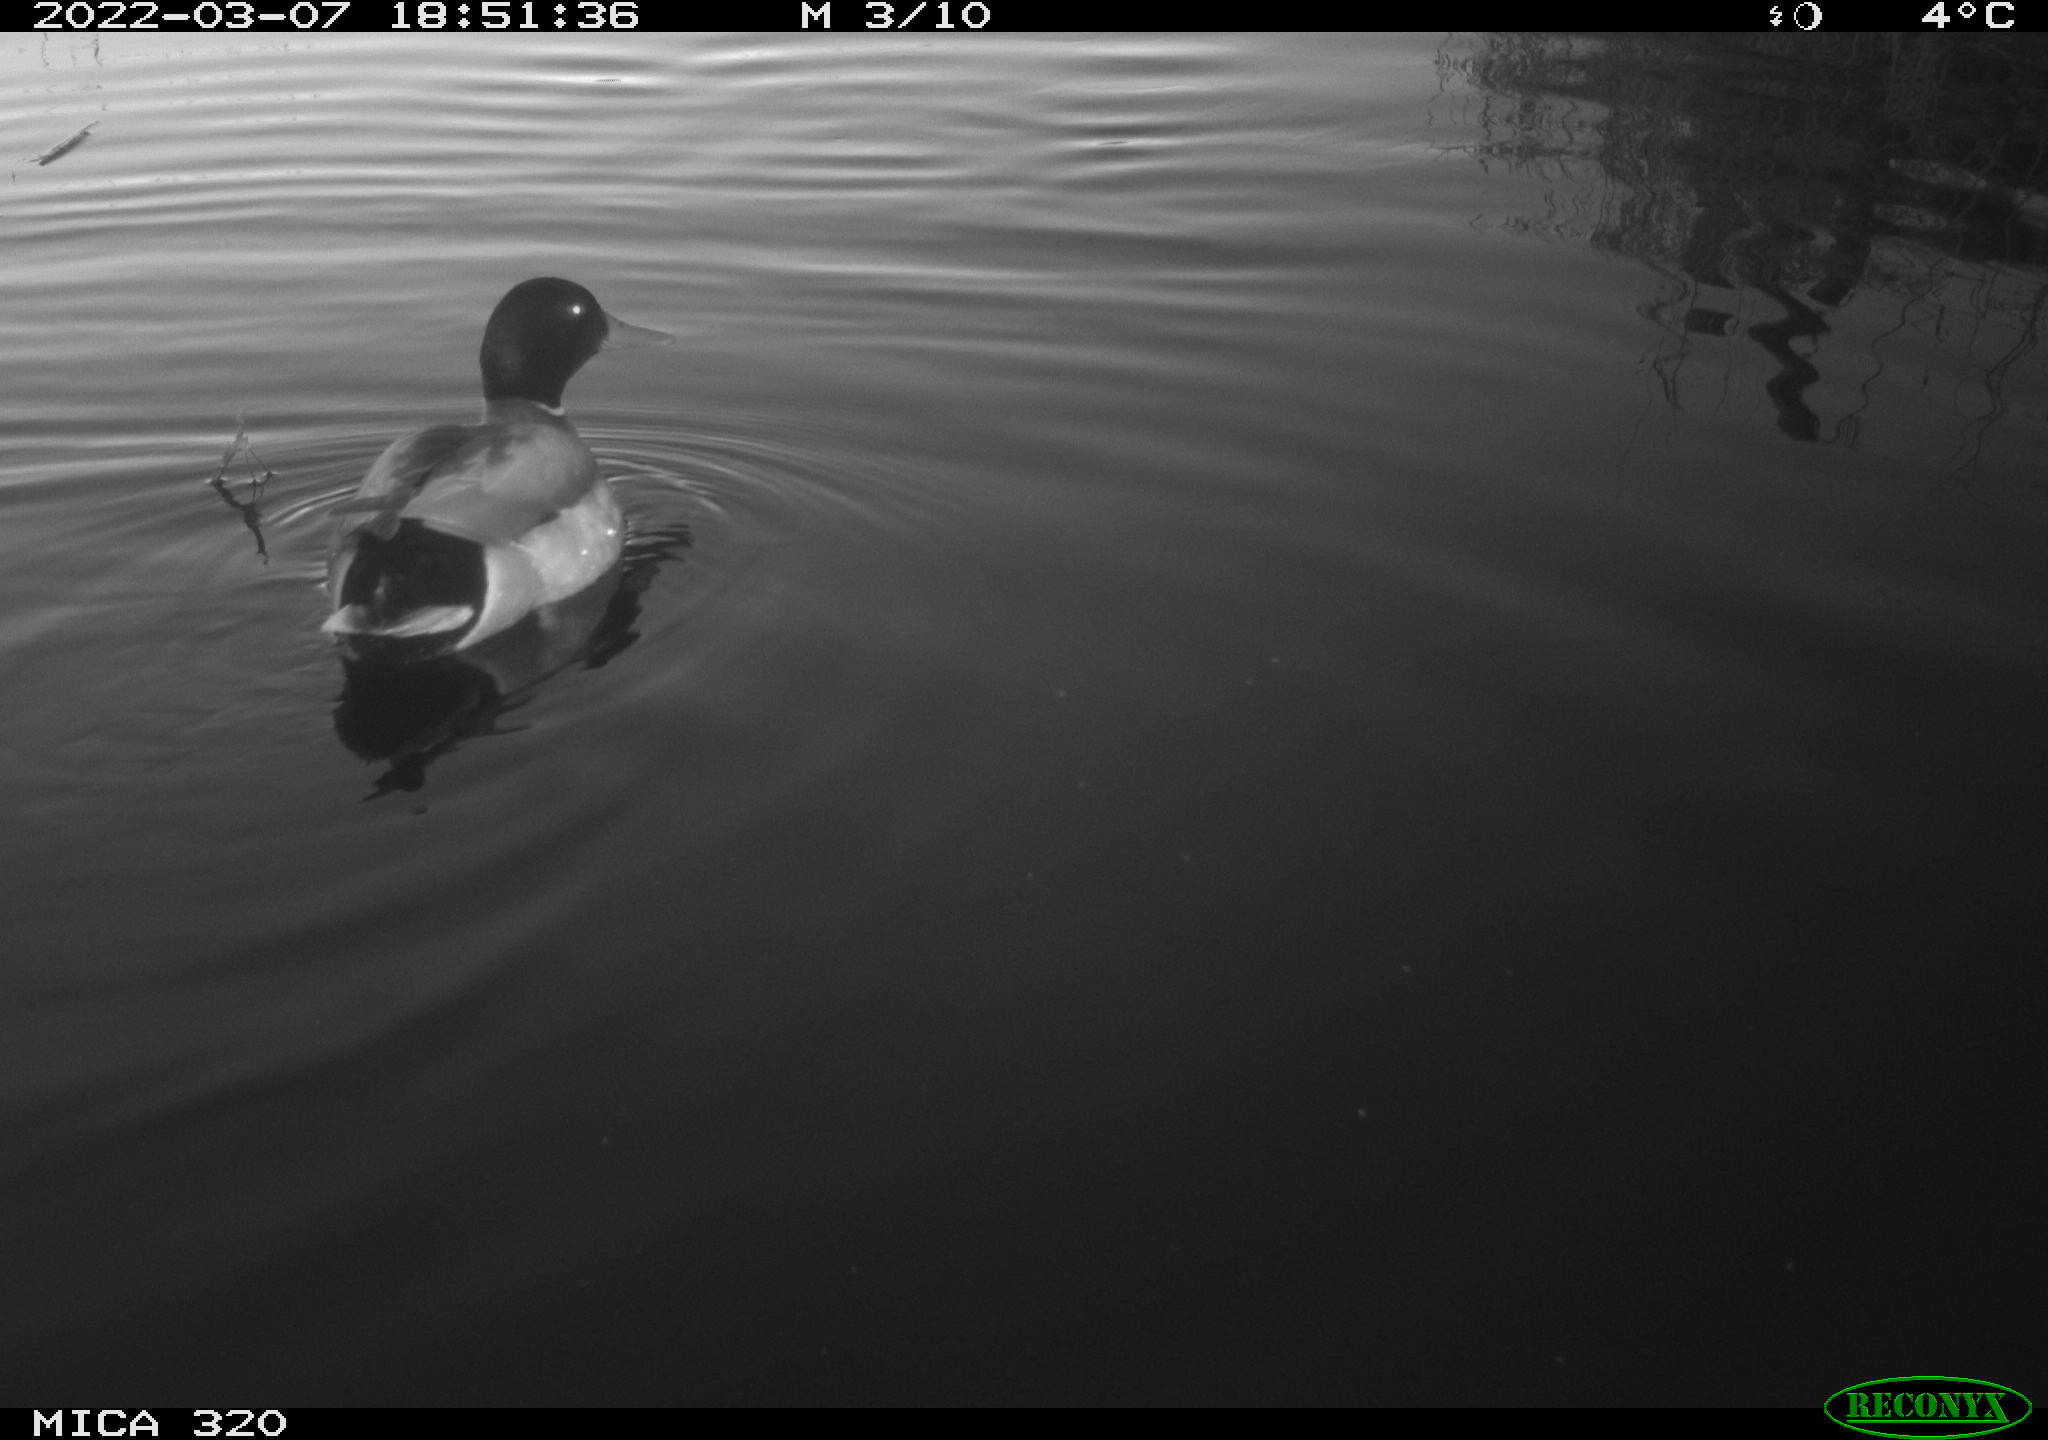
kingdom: Animalia
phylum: Chordata
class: Aves
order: Anseriformes
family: Anatidae
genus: Anas
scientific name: Anas platyrhynchos
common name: Mallard
